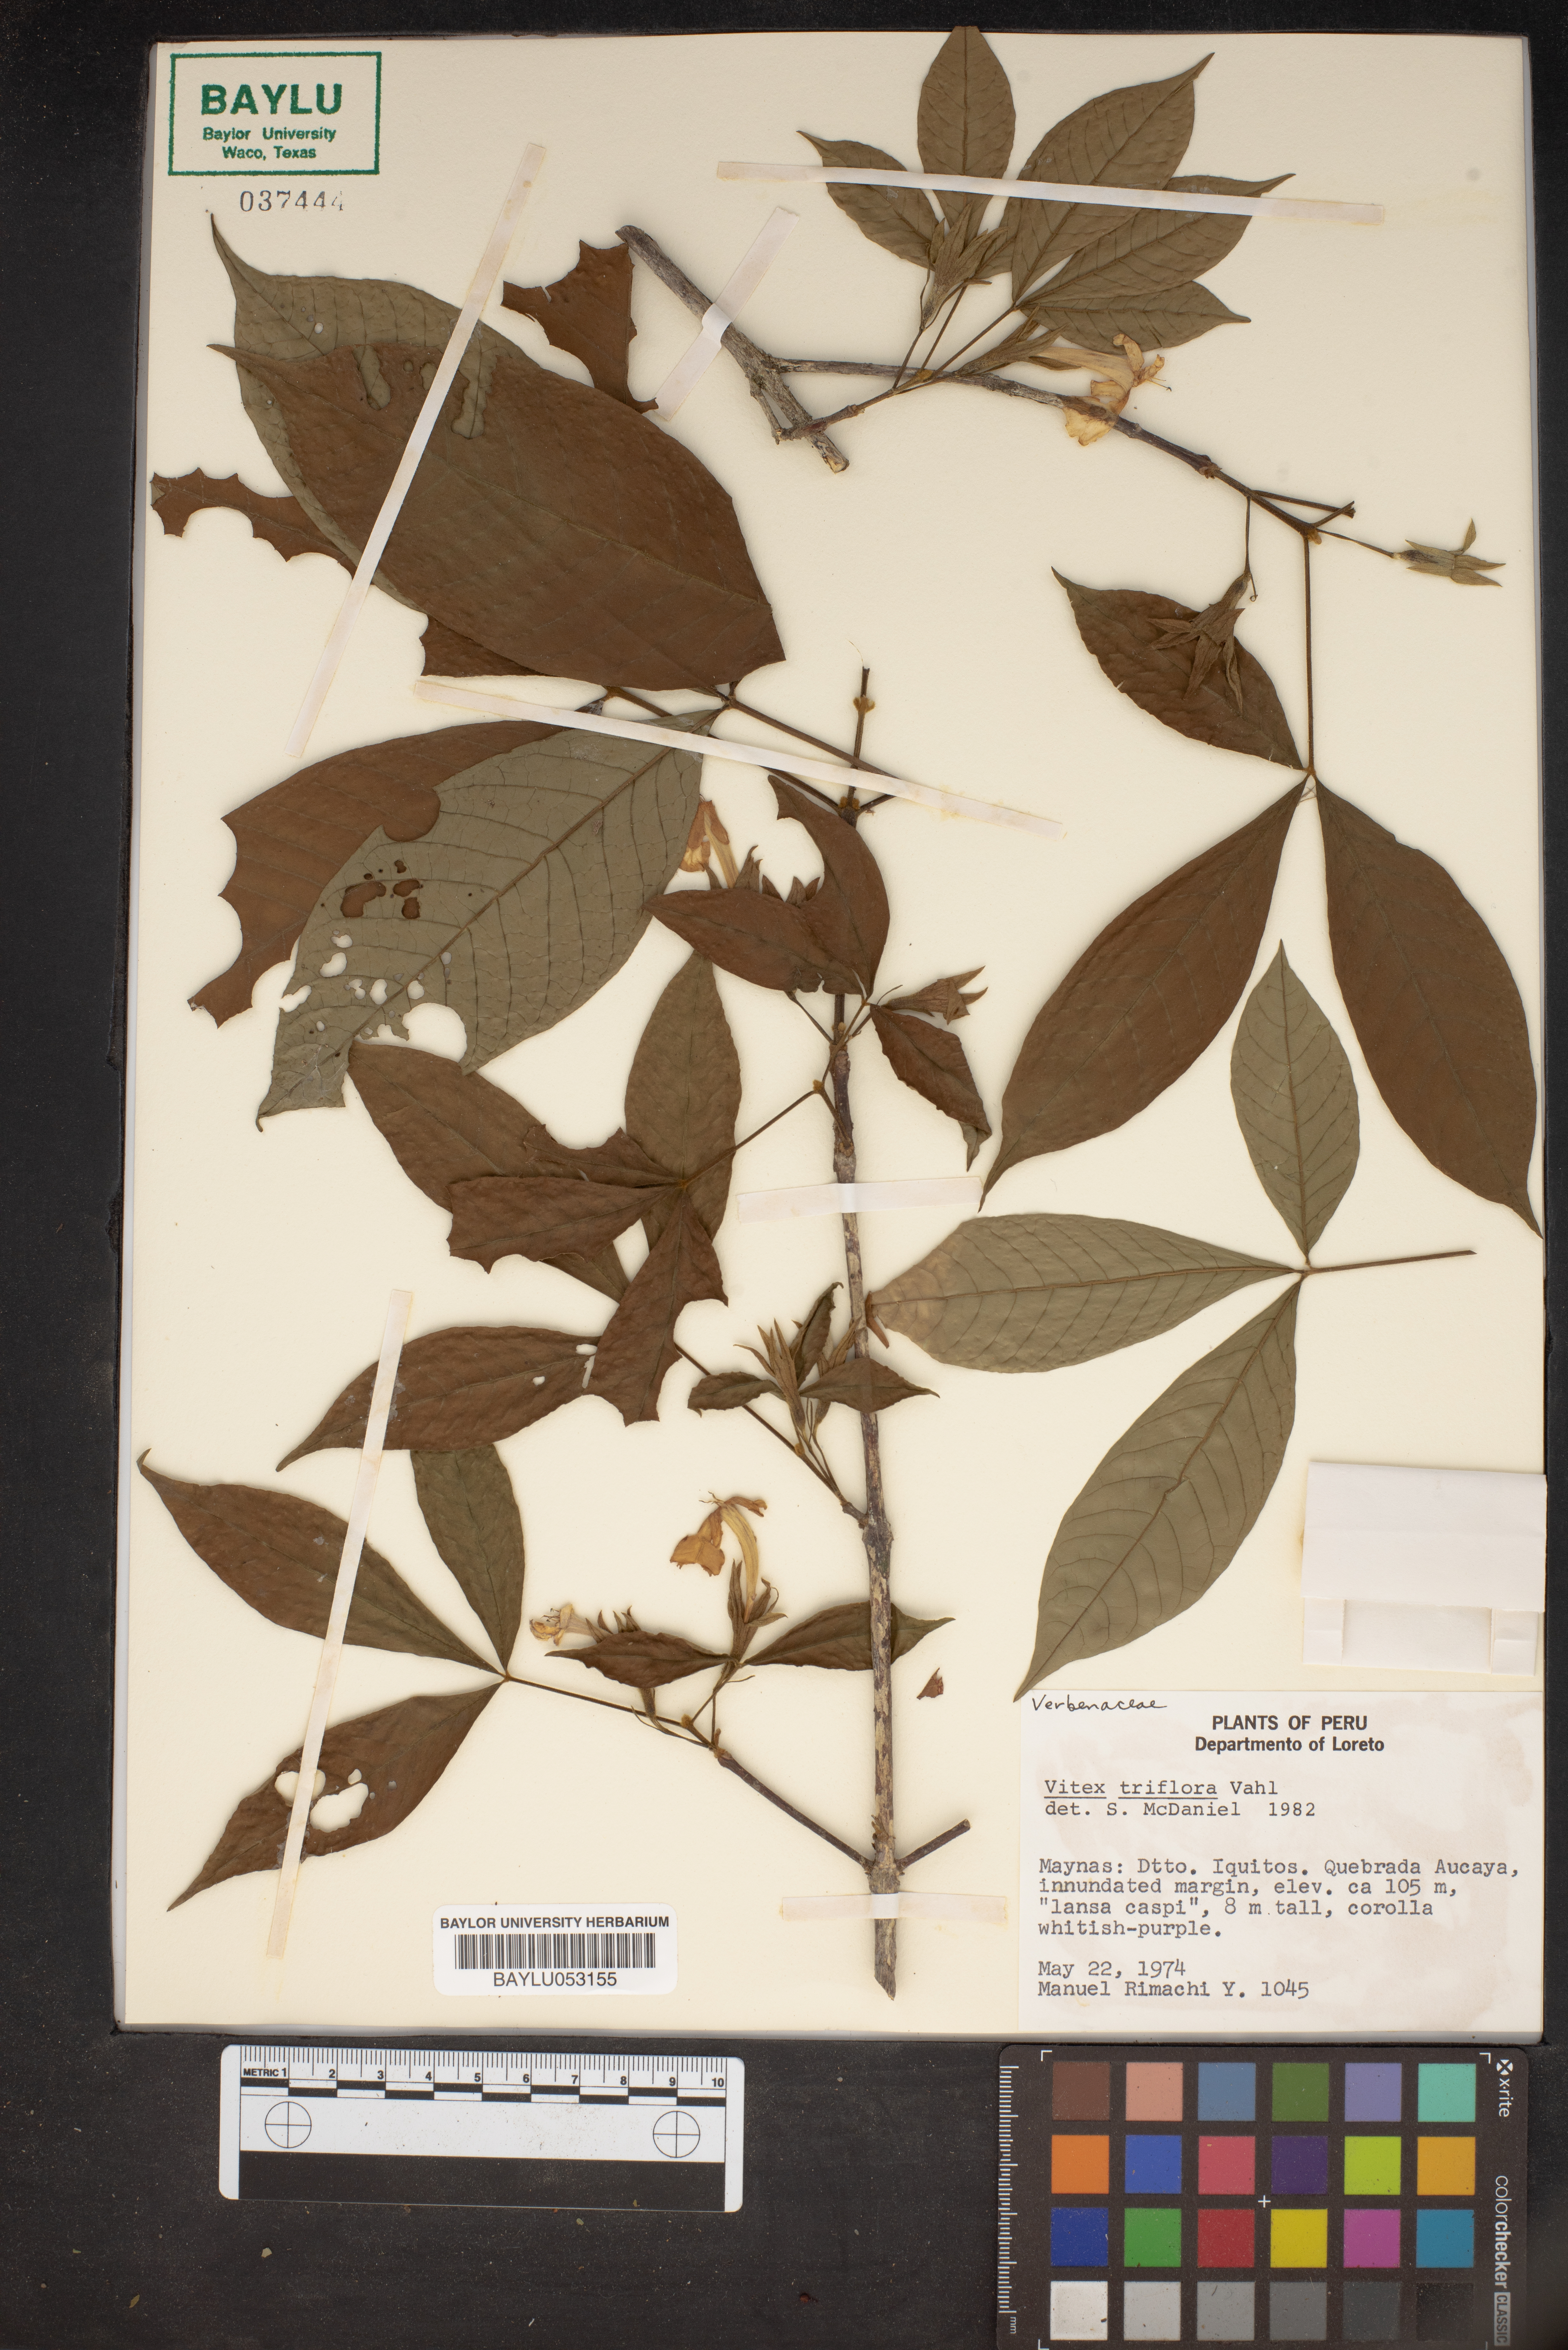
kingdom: Plantae
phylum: Tracheophyta
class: Magnoliopsida
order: Lamiales
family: Lamiaceae
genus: Vitex
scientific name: Vitex triflora
